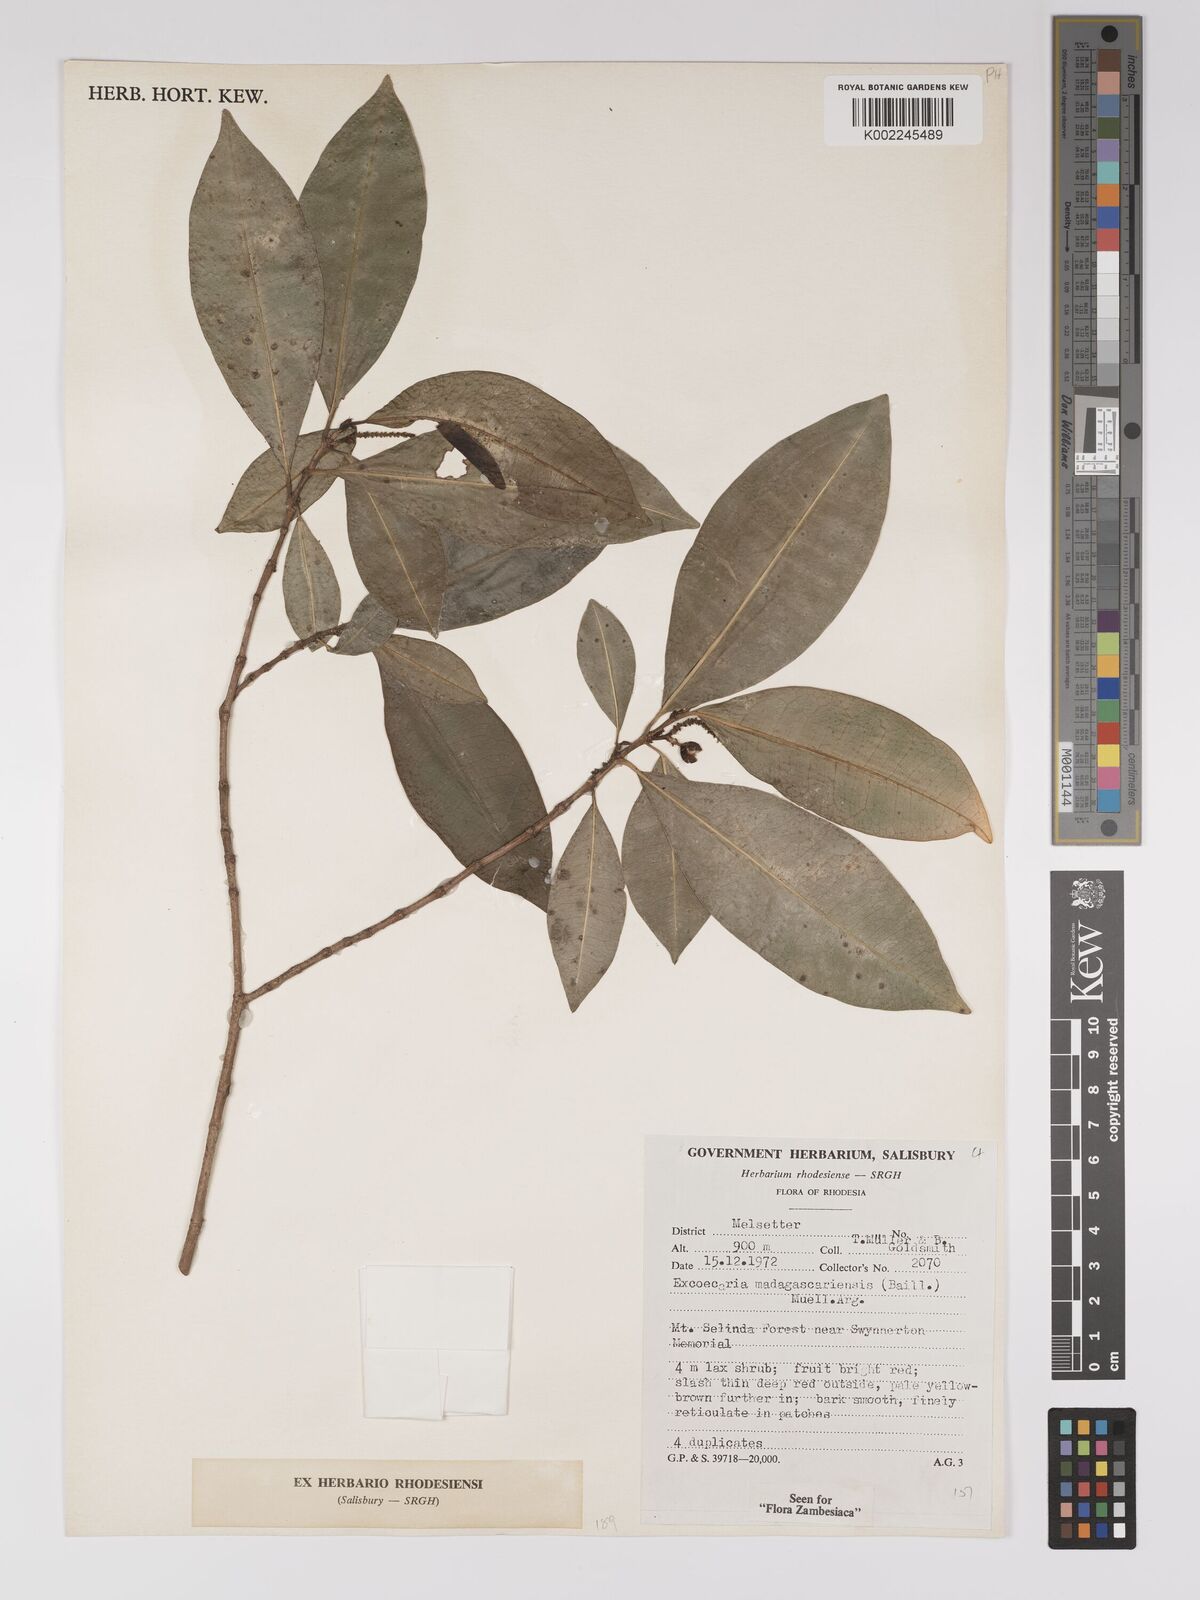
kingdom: Plantae
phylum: Tracheophyta
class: Magnoliopsida
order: Malpighiales
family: Euphorbiaceae
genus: Excoecaria
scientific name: Excoecaria madagascariensis
